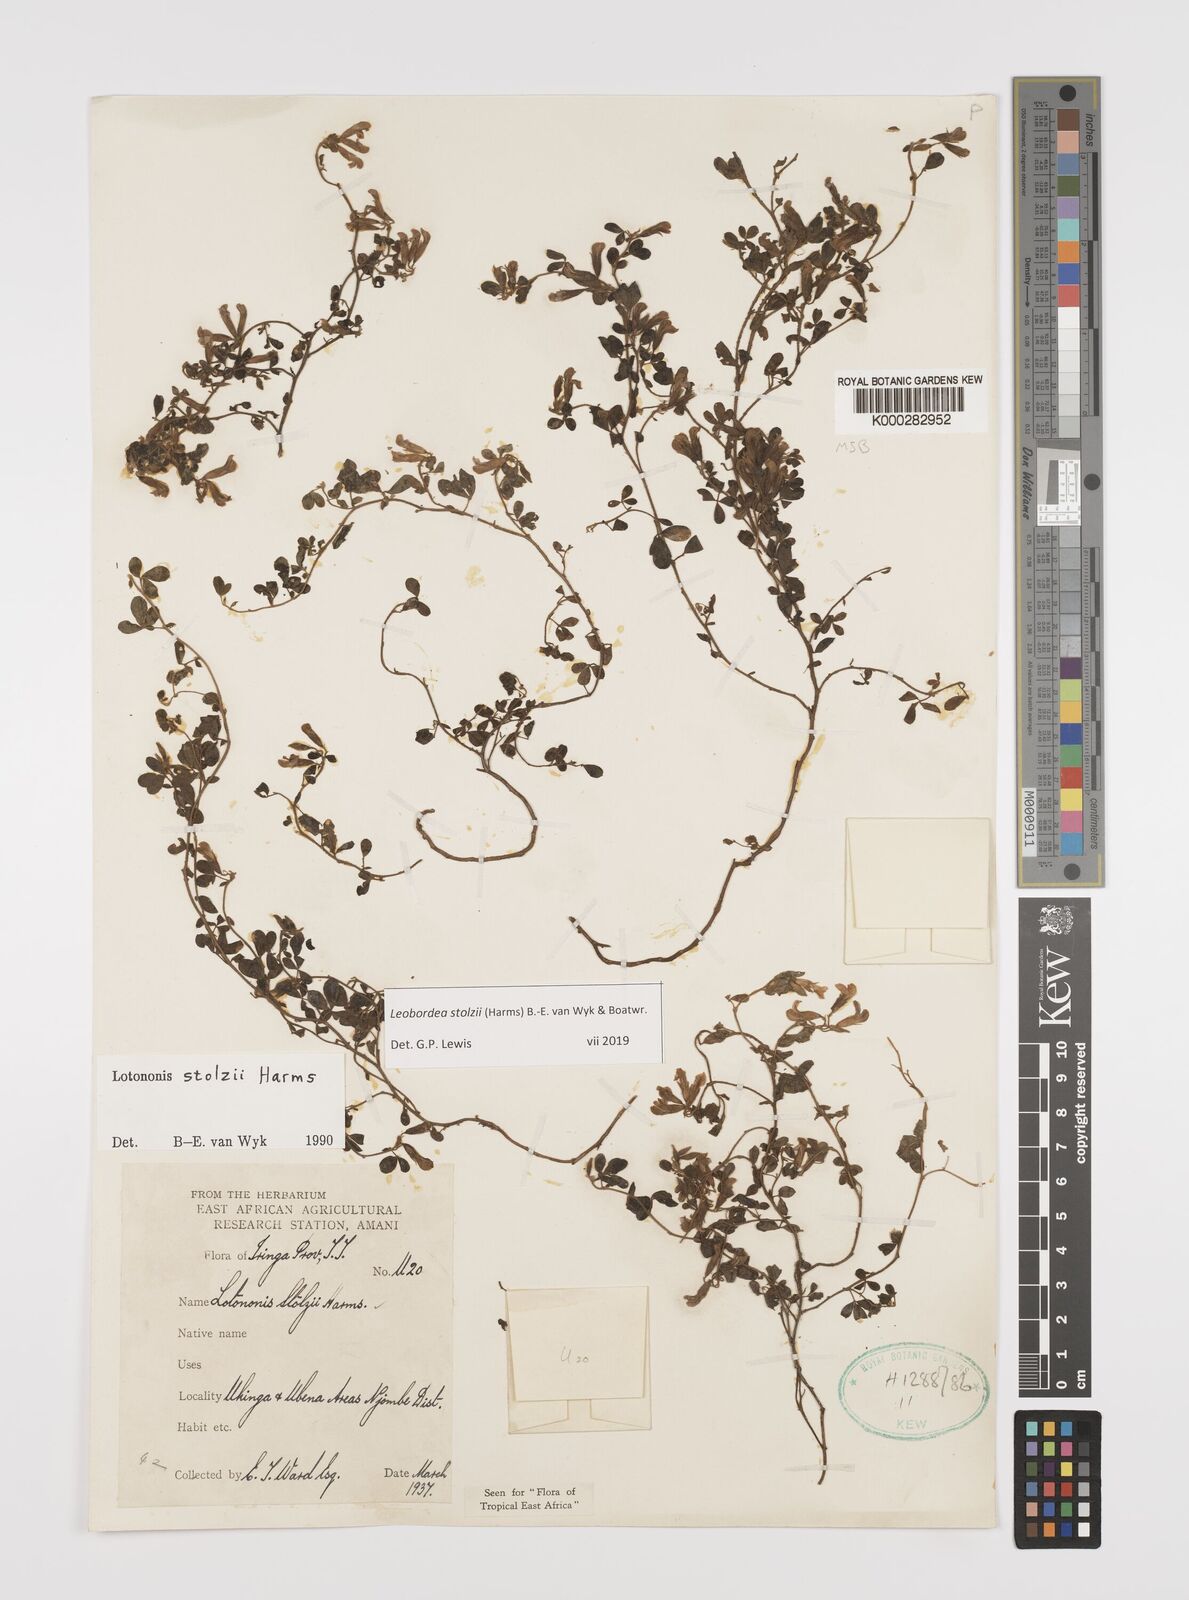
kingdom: Plantae
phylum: Tracheophyta
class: Magnoliopsida
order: Fabales
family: Fabaceae
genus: Leobordea
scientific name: Leobordea stolzii
